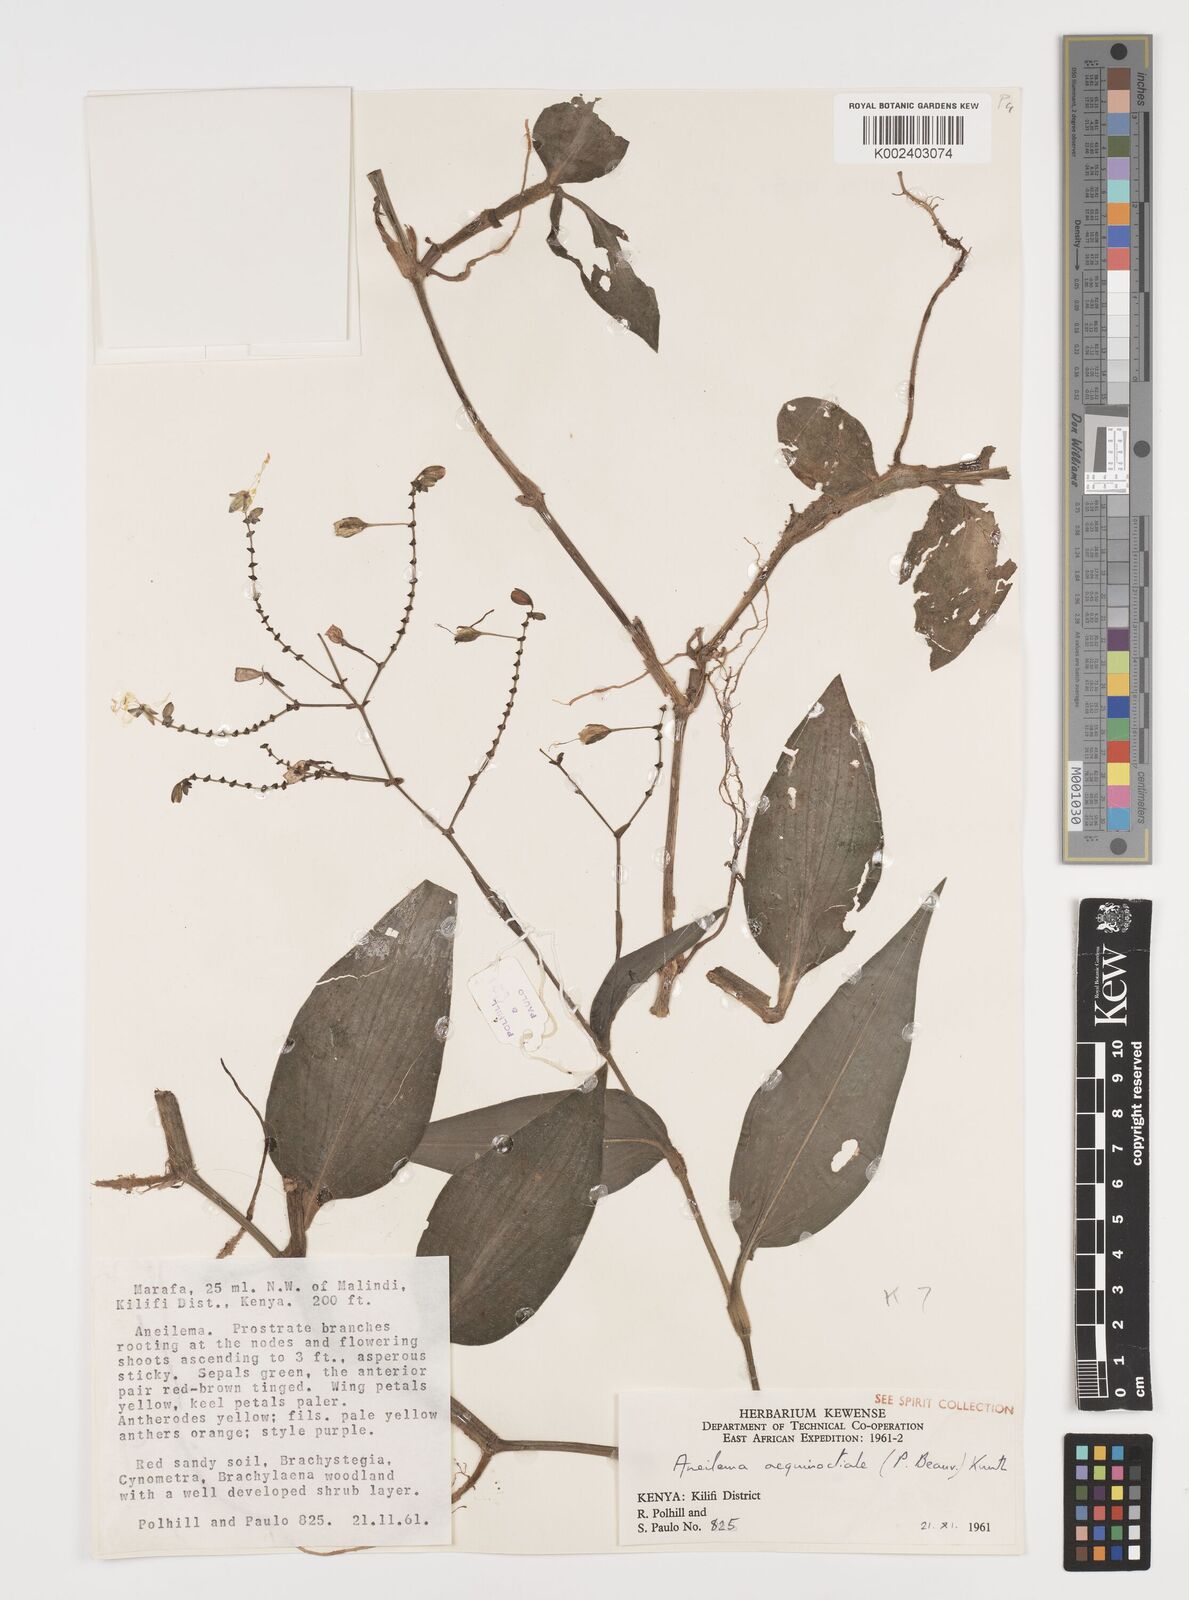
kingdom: Plantae
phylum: Tracheophyta
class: Liliopsida
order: Commelinales
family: Commelinaceae
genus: Aneilema
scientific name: Aneilema aequinoctiale
